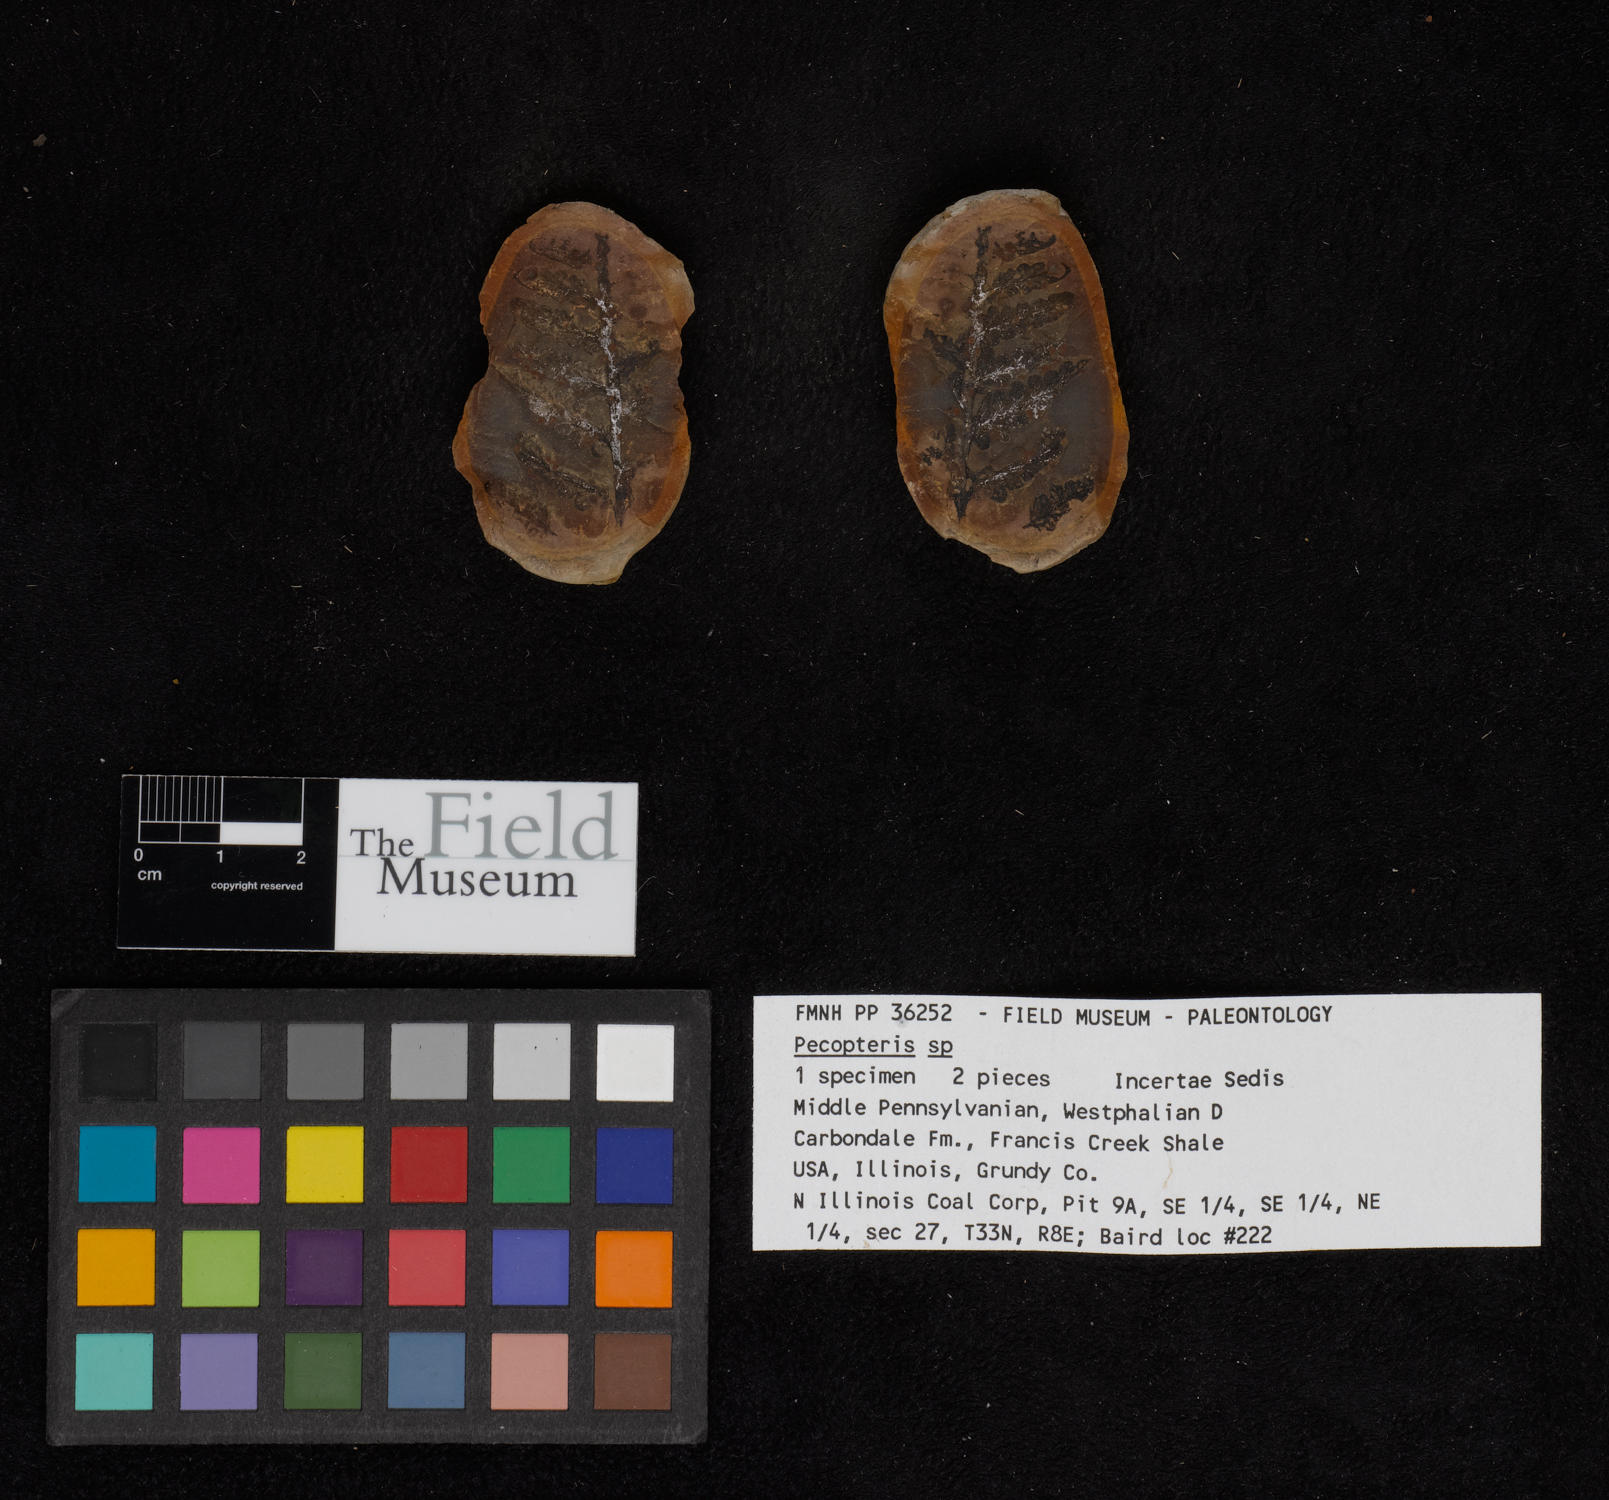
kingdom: Plantae
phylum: Tracheophyta
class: Polypodiopsida
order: Marattiales
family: Asterothecaceae
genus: Pecopteris
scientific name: Pecopteris
